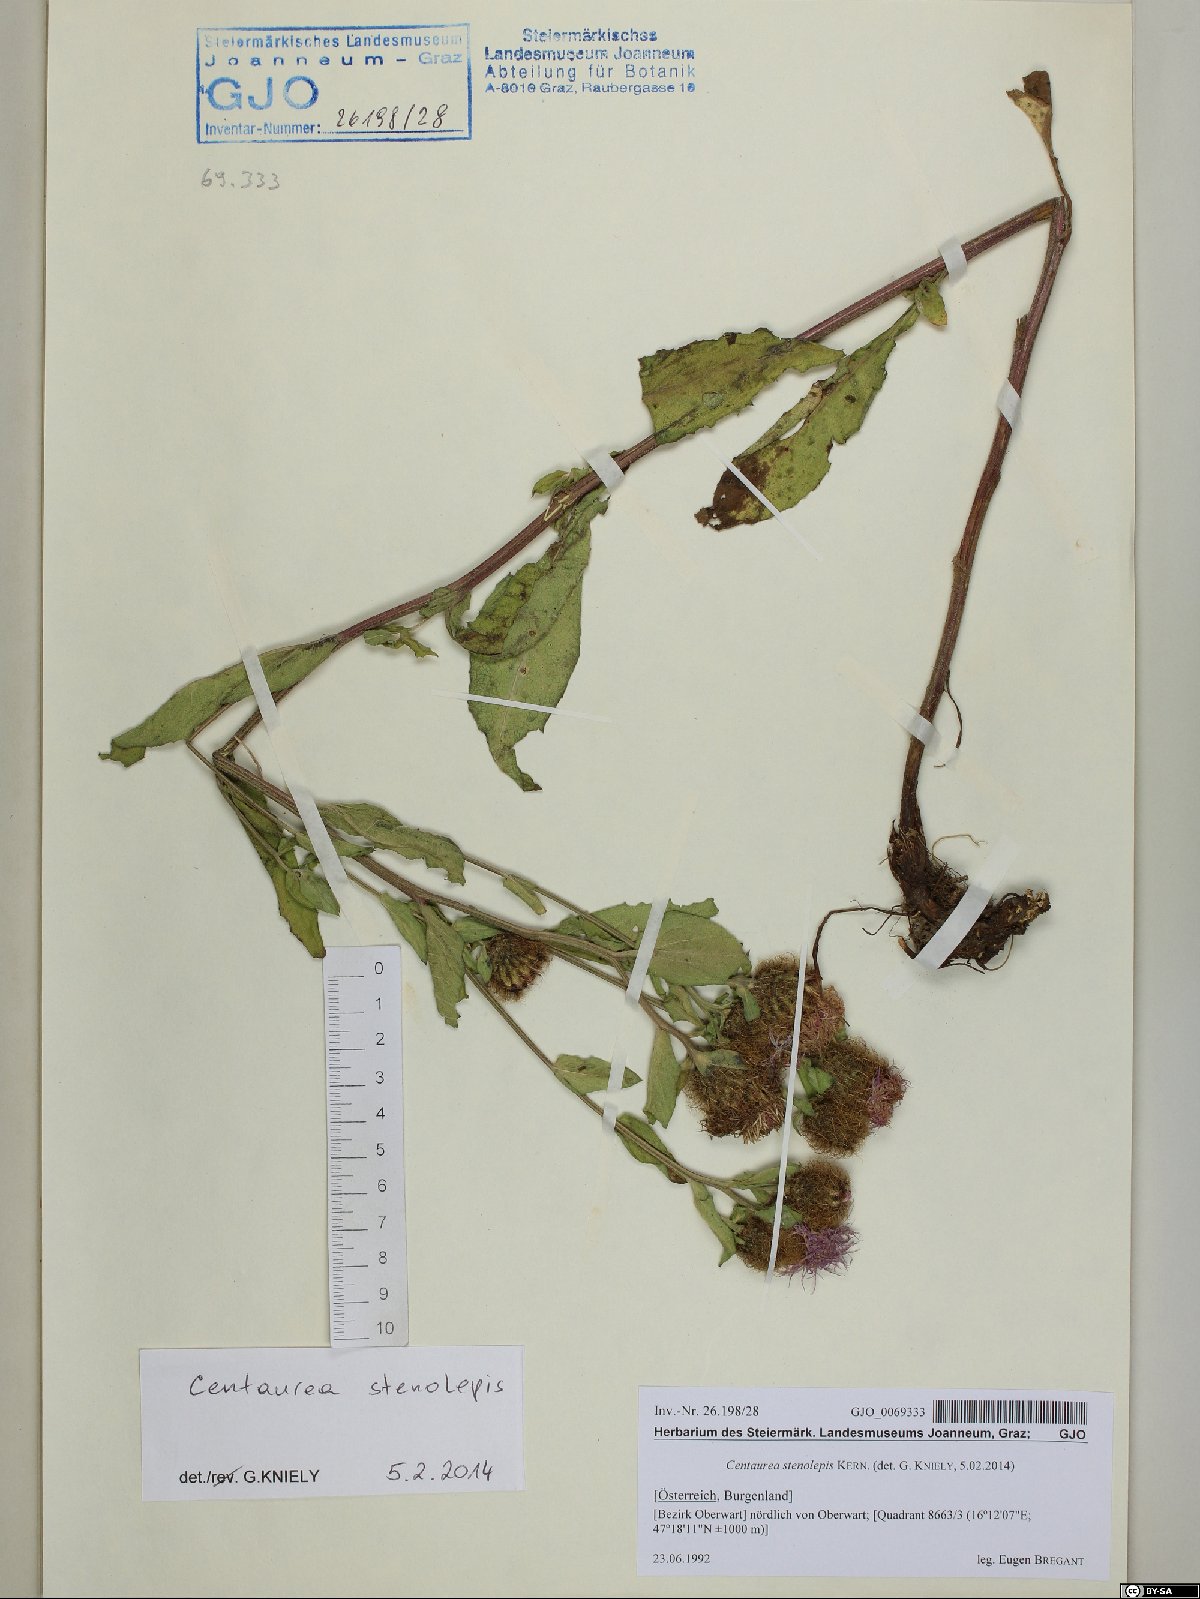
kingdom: Plantae
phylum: Tracheophyta
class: Magnoliopsida
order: Asterales
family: Asteraceae
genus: Centaurea
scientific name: Centaurea stenolepis
